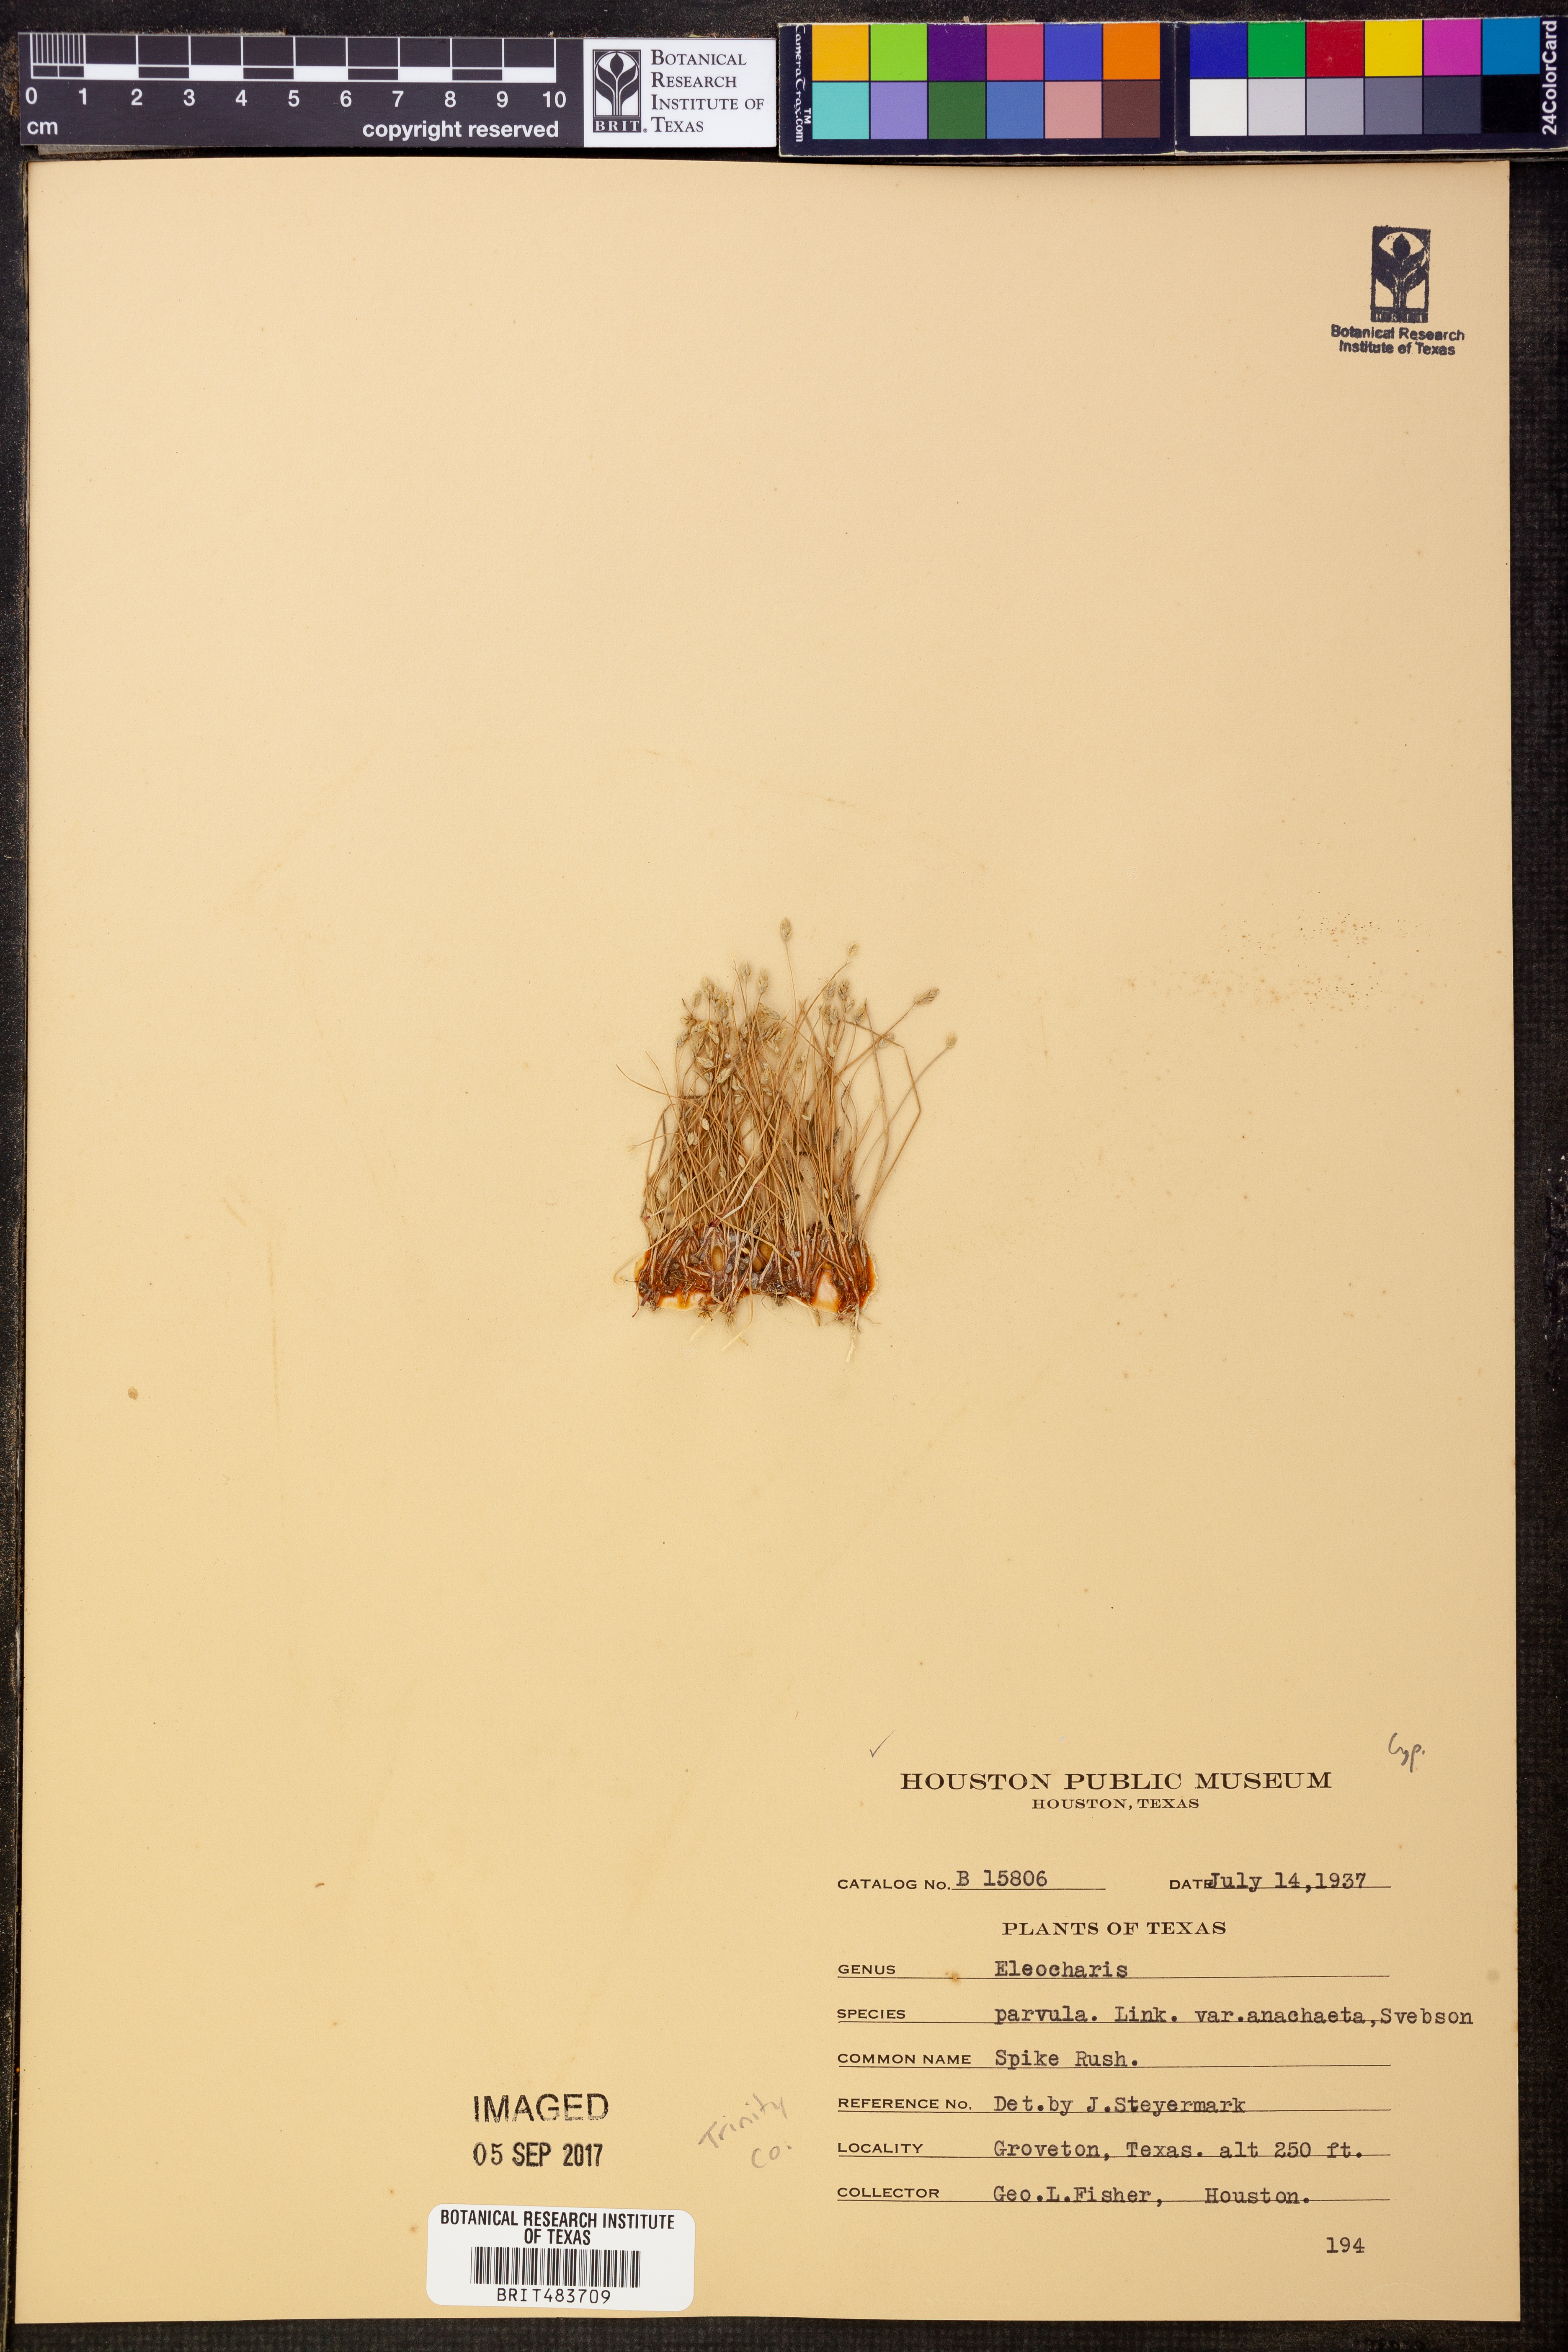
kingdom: Plantae
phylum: Tracheophyta
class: Liliopsida
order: Poales
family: Cyperaceae
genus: Eleocharis
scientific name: Eleocharis coloradoensis
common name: Colorado spikerush
